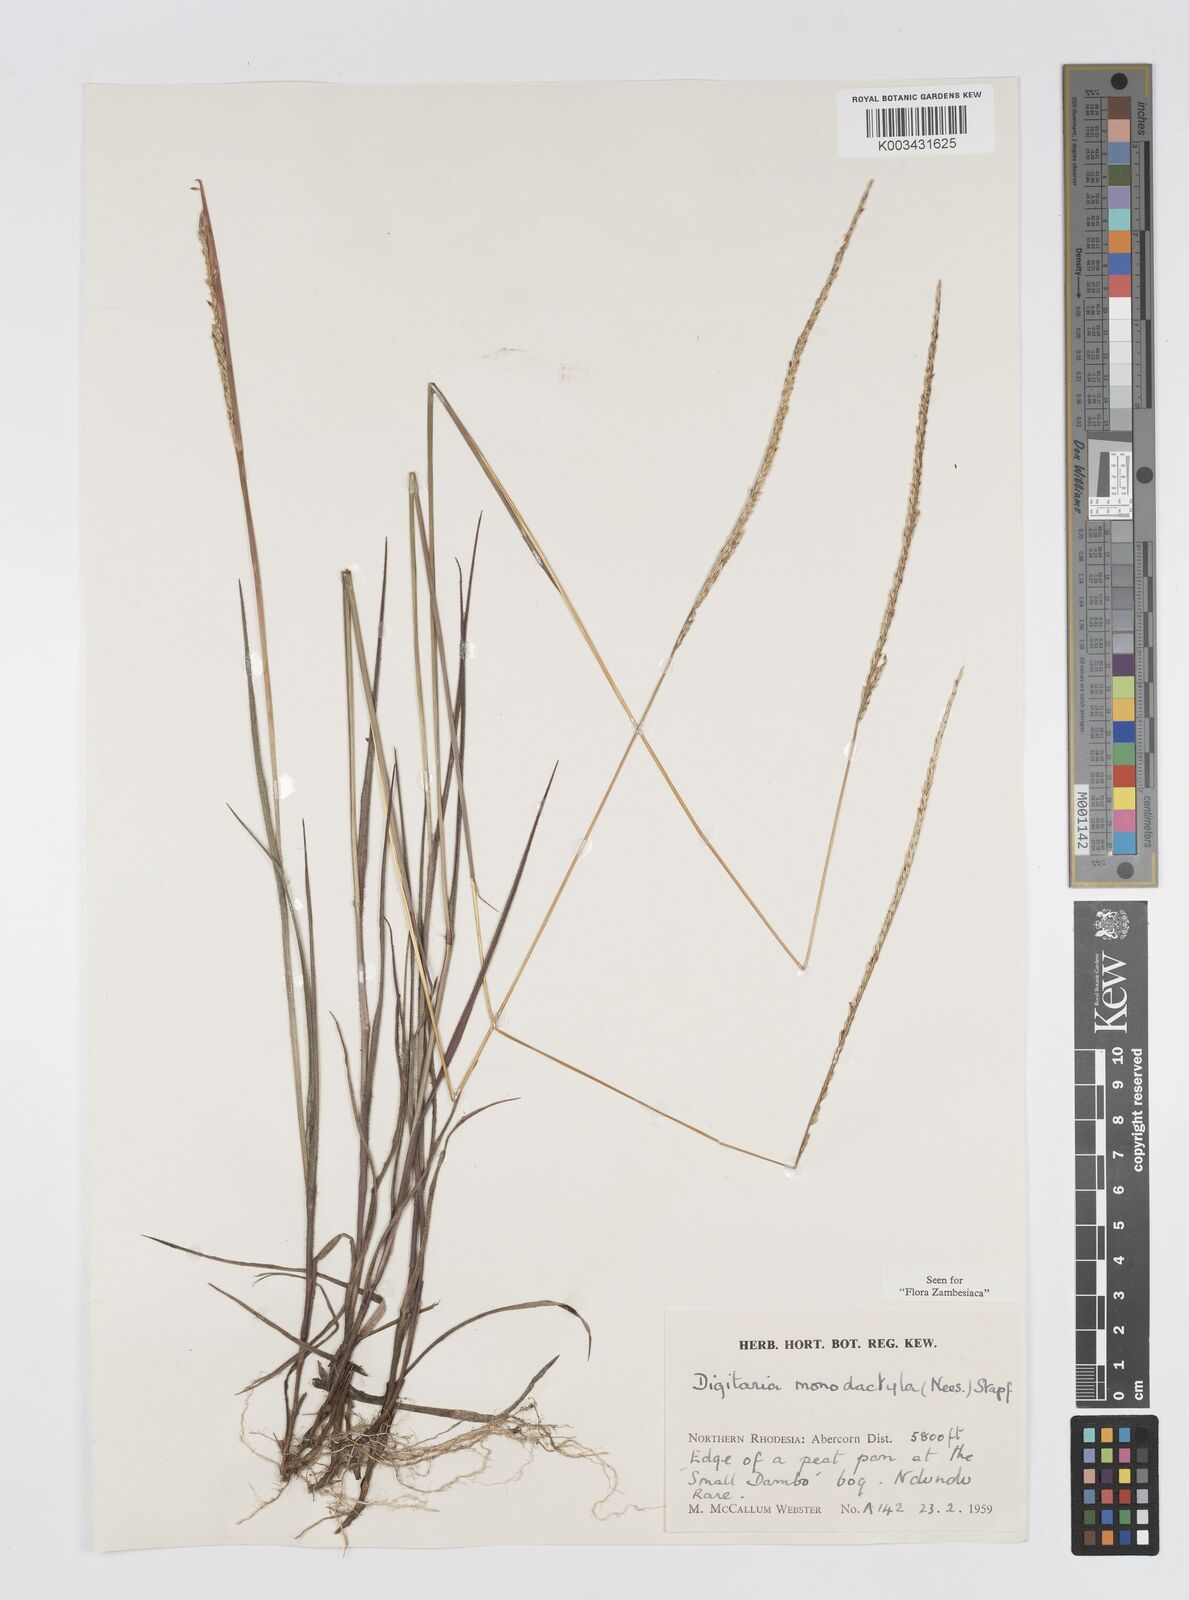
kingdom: Plantae
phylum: Tracheophyta
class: Liliopsida
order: Poales
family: Poaceae
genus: Digitaria
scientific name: Digitaria monodactyla
